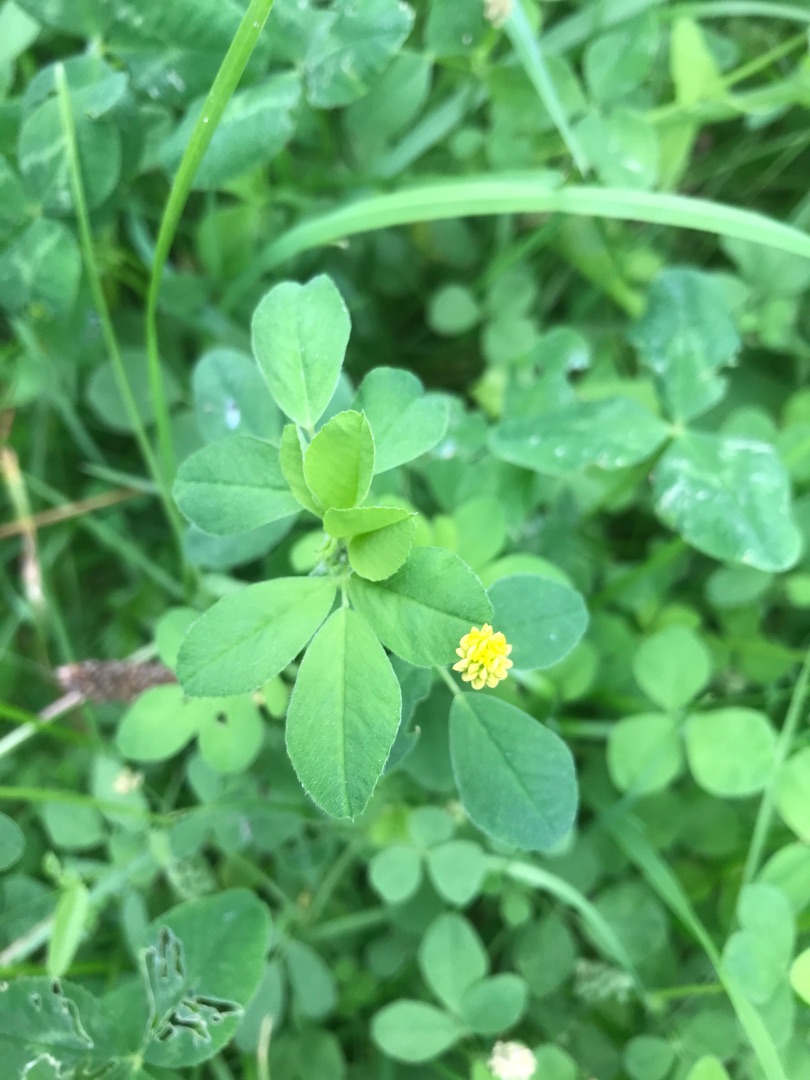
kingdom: Plantae
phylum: Tracheophyta
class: Magnoliopsida
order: Fabales
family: Fabaceae
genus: Medicago
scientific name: Medicago lupulina
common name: Humle-sneglebælg
